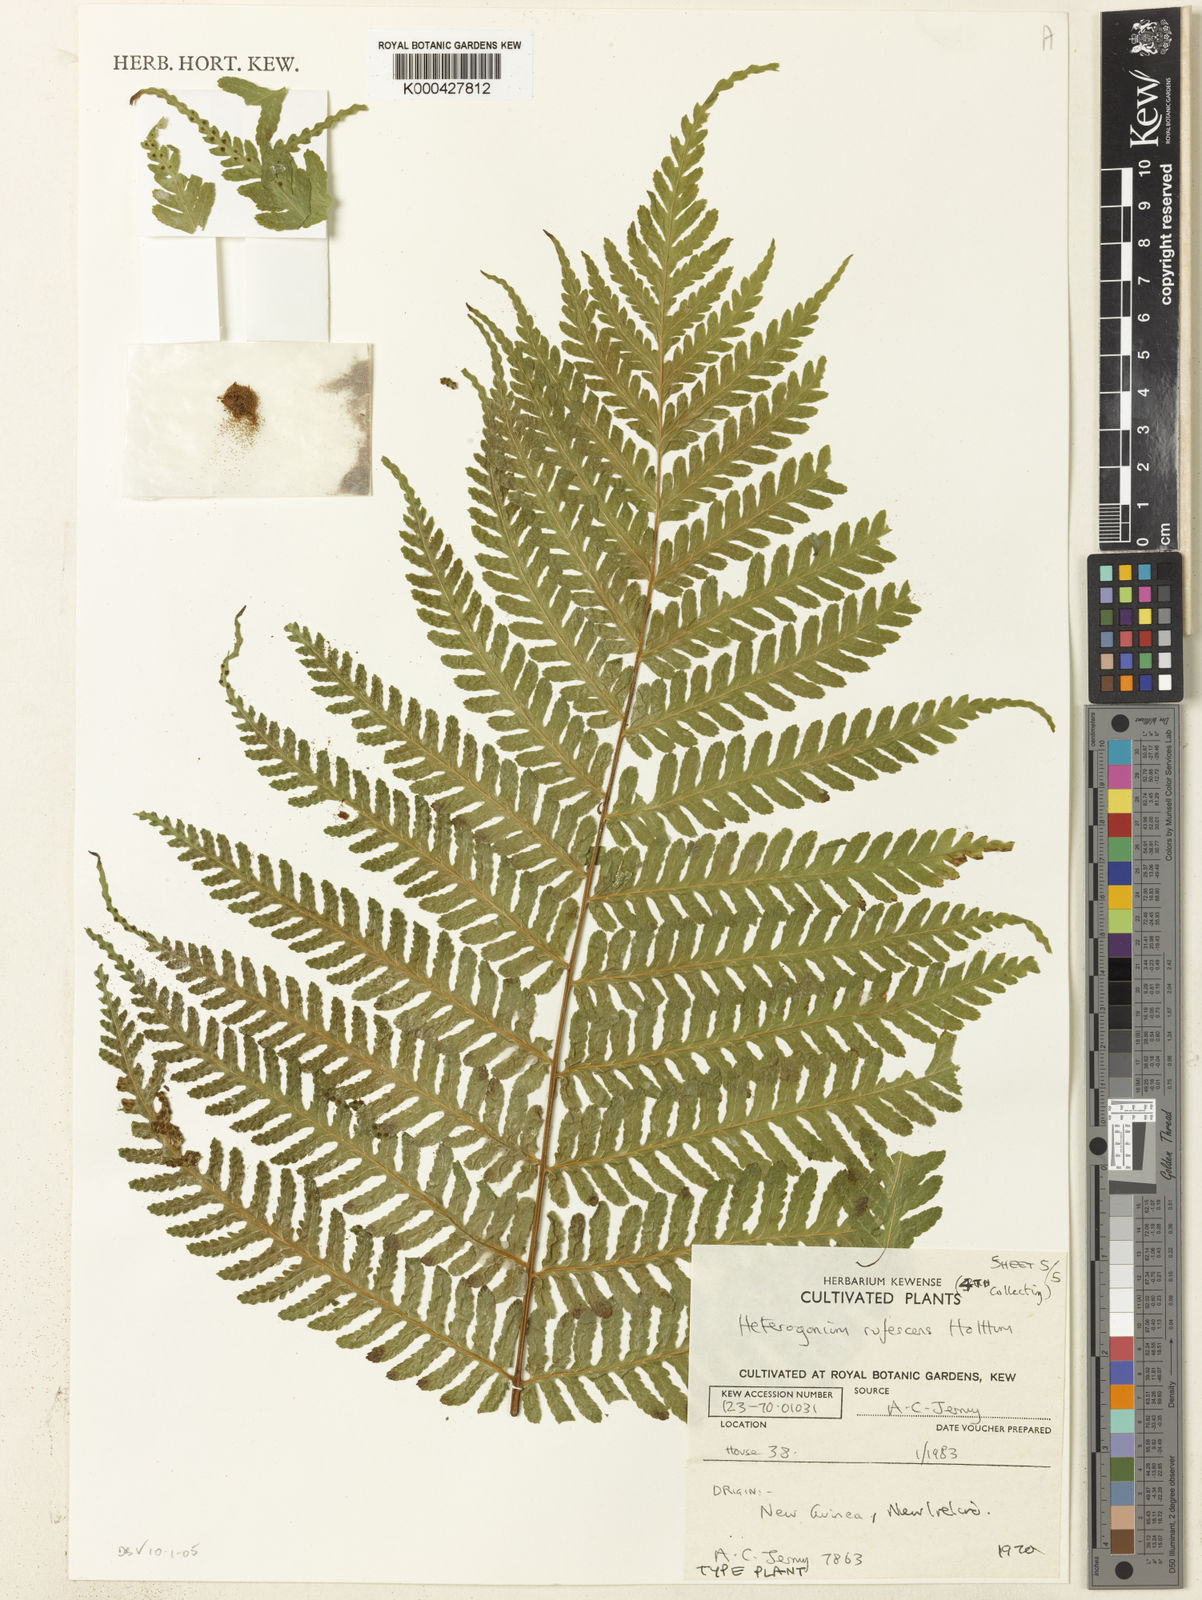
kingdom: Plantae
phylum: Tracheophyta
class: Polypodiopsida
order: Polypodiales
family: Tectariaceae
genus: Tectaria
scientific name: Tectaria jermyi
